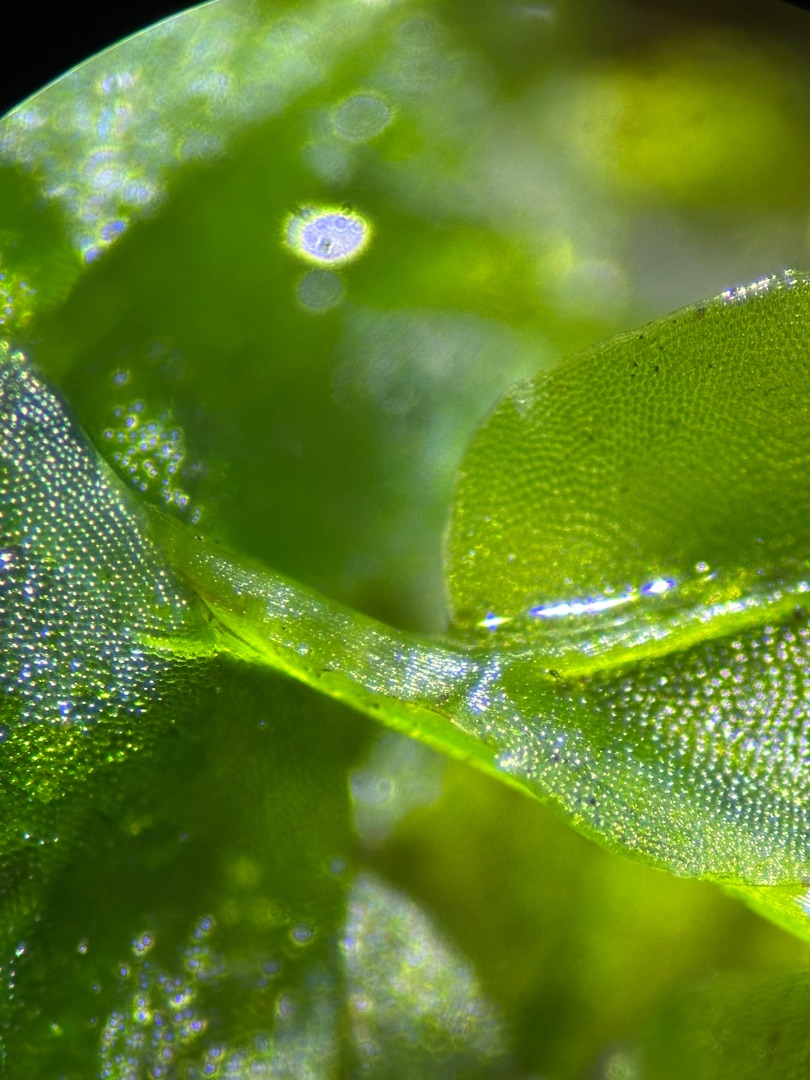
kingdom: Plantae
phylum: Bryophyta
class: Bryopsida
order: Bryales
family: Mniaceae
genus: Plagiomnium
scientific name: Plagiomnium affine
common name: Fælled-krybstjerne
